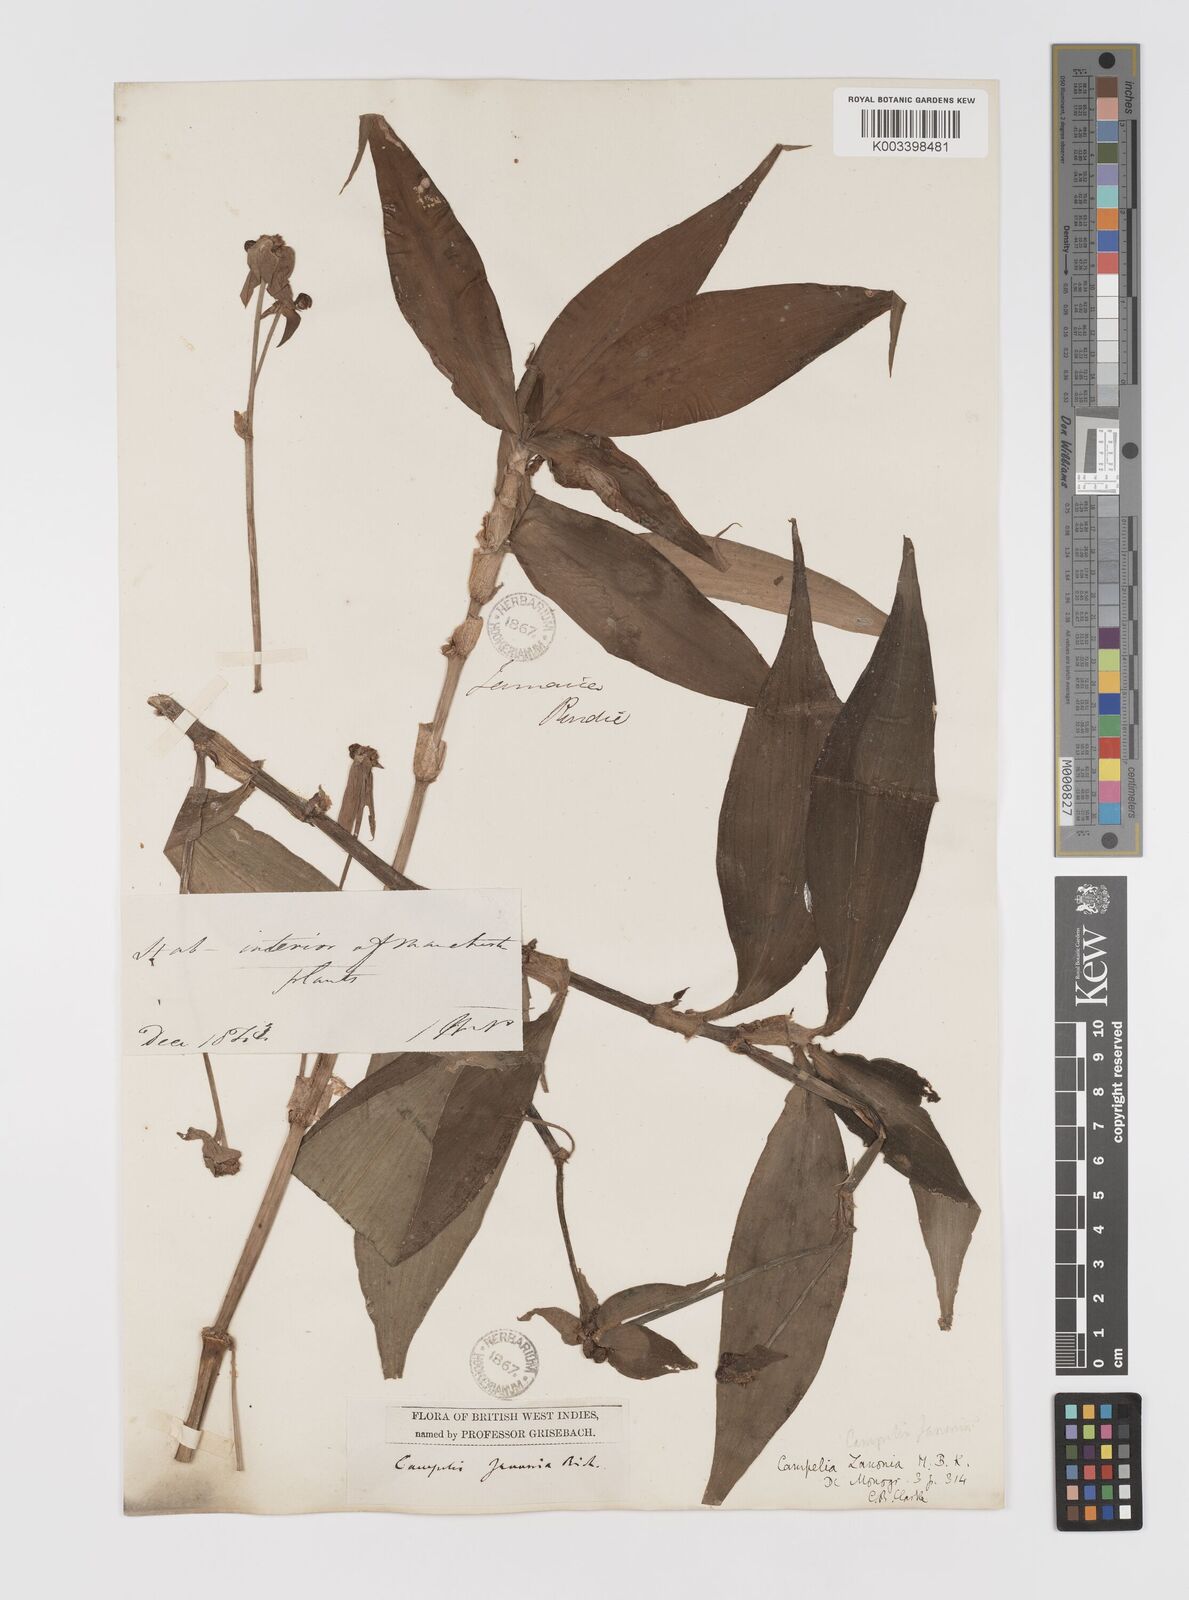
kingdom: Plantae
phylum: Tracheophyta
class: Liliopsida
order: Commelinales
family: Commelinaceae
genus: Tradescantia
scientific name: Tradescantia zanonia
